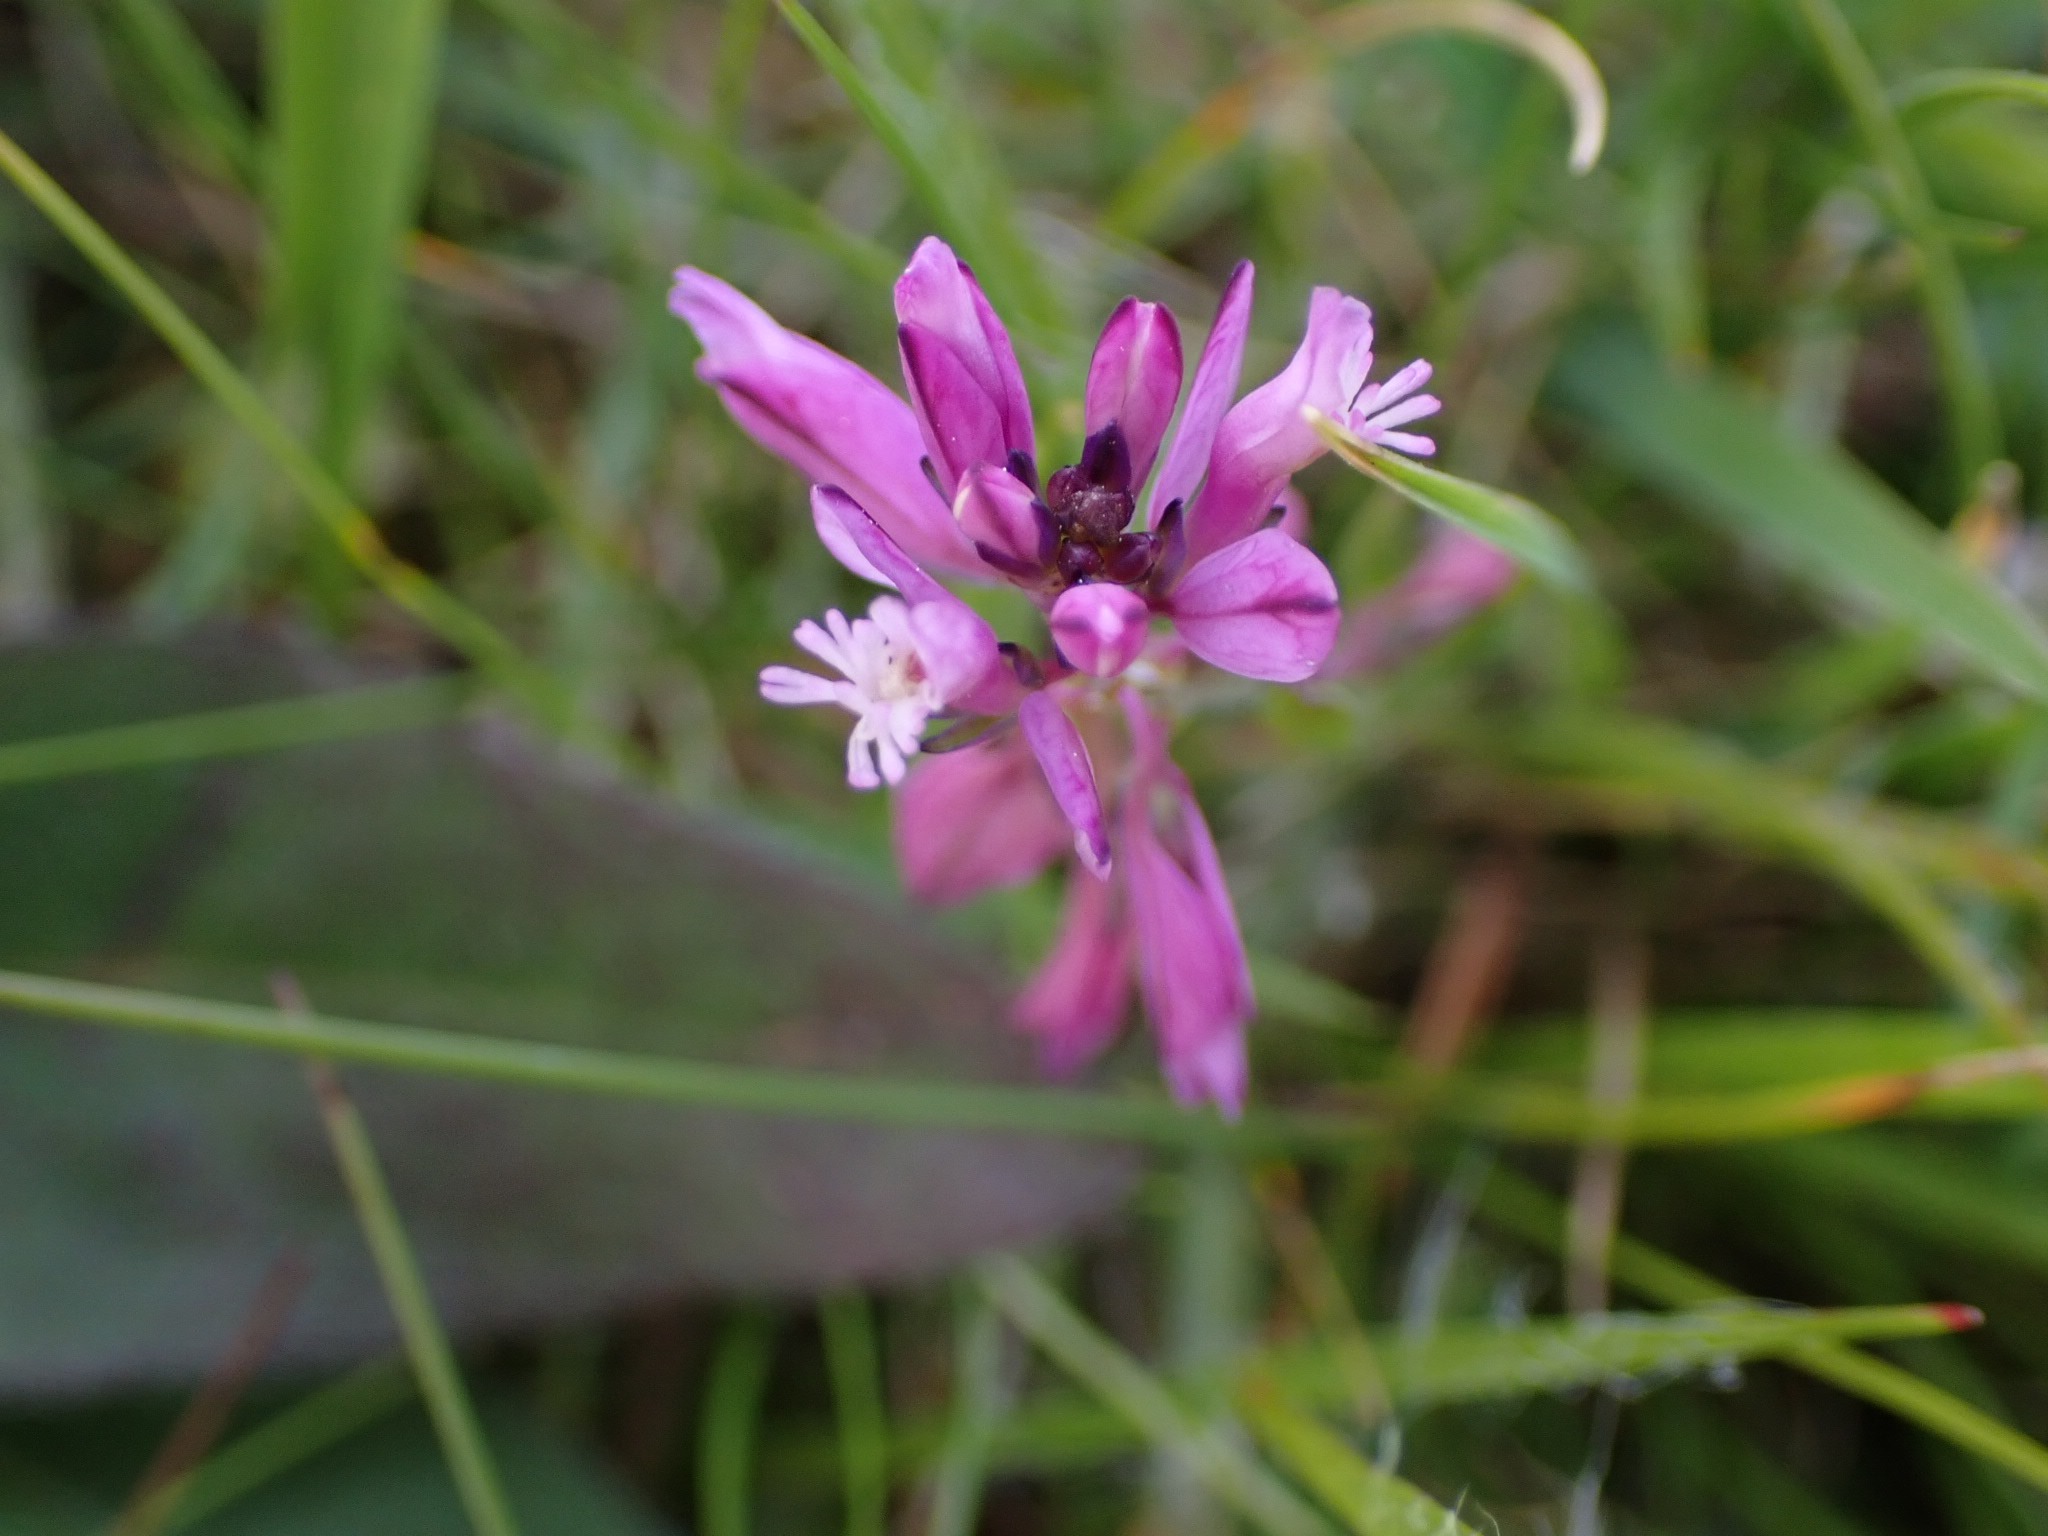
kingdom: Plantae
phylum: Tracheophyta
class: Magnoliopsida
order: Fabales
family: Polygalaceae
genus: Polygala
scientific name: Polygala vulgaris
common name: Almindelig mælkeurt
